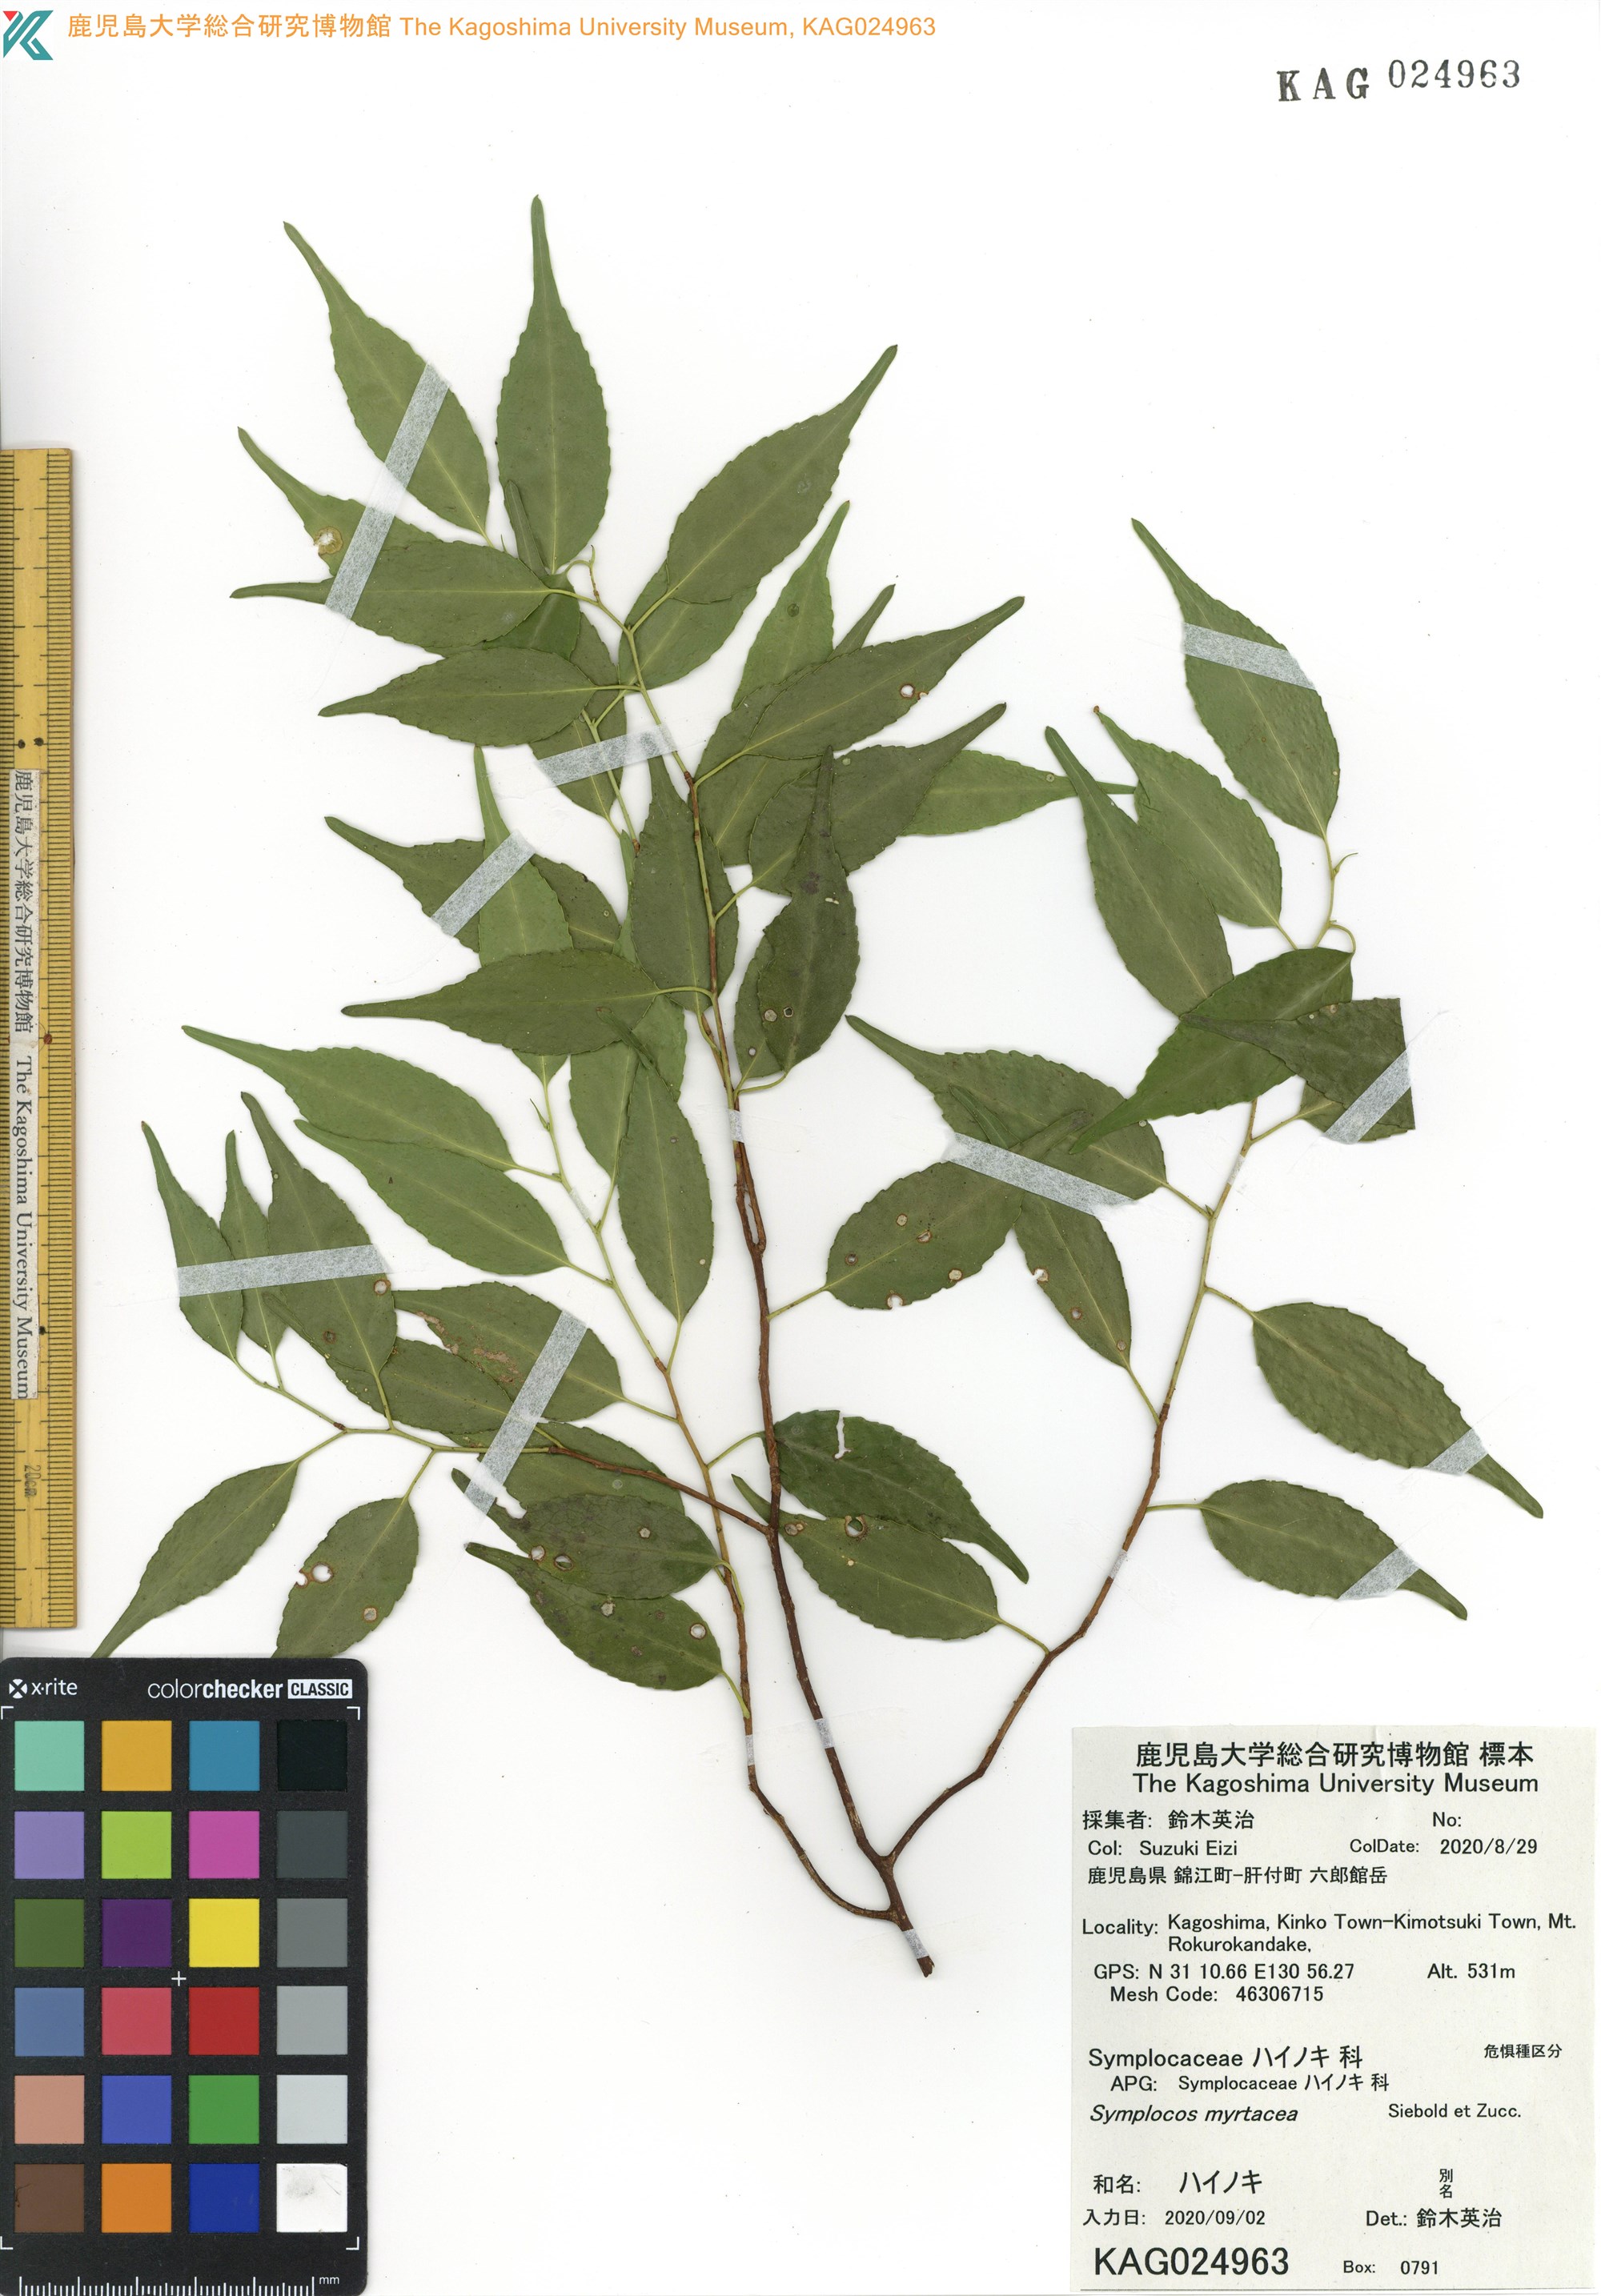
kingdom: Plantae
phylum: Tracheophyta
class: Magnoliopsida
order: Ericales
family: Symplocaceae
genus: Symplocos
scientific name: Symplocos myrtacea
